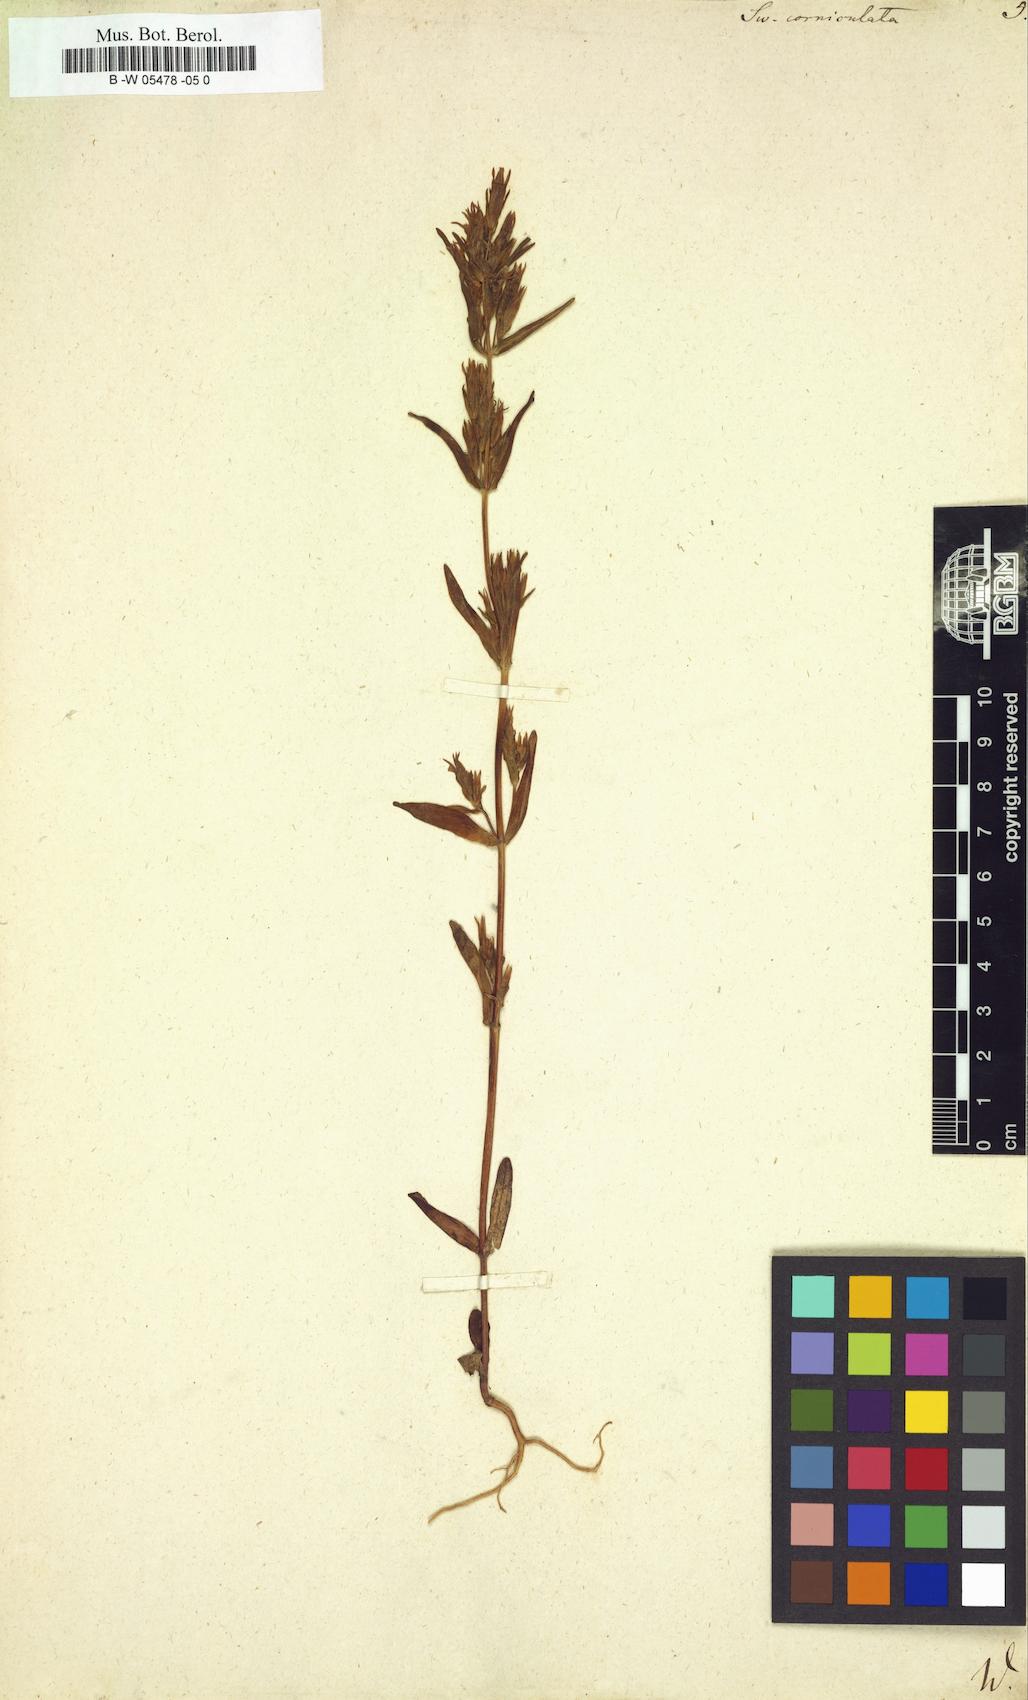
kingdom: Plantae
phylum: Tracheophyta
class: Magnoliopsida
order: Gentianales
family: Gentianaceae
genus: Halenia
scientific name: Halenia corniculata
